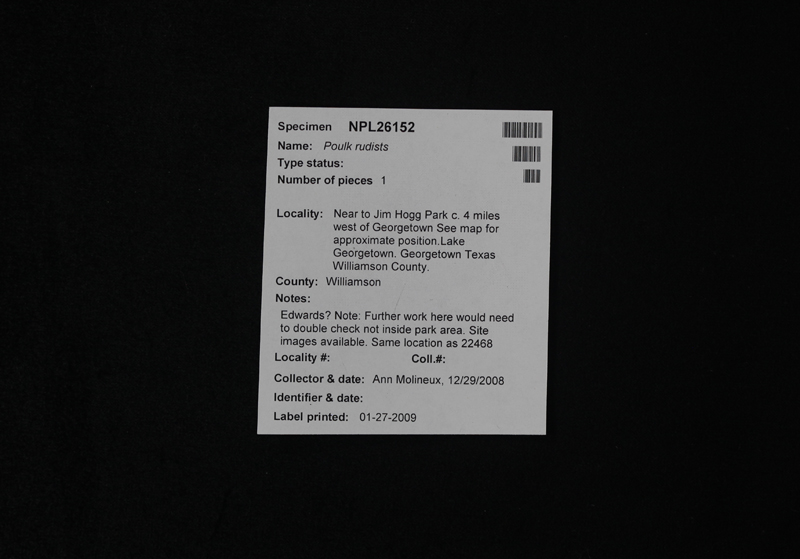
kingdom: Animalia
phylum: Mollusca
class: Bivalvia
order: Hippuritida
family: Caprinulidae
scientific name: Caprinulidae
